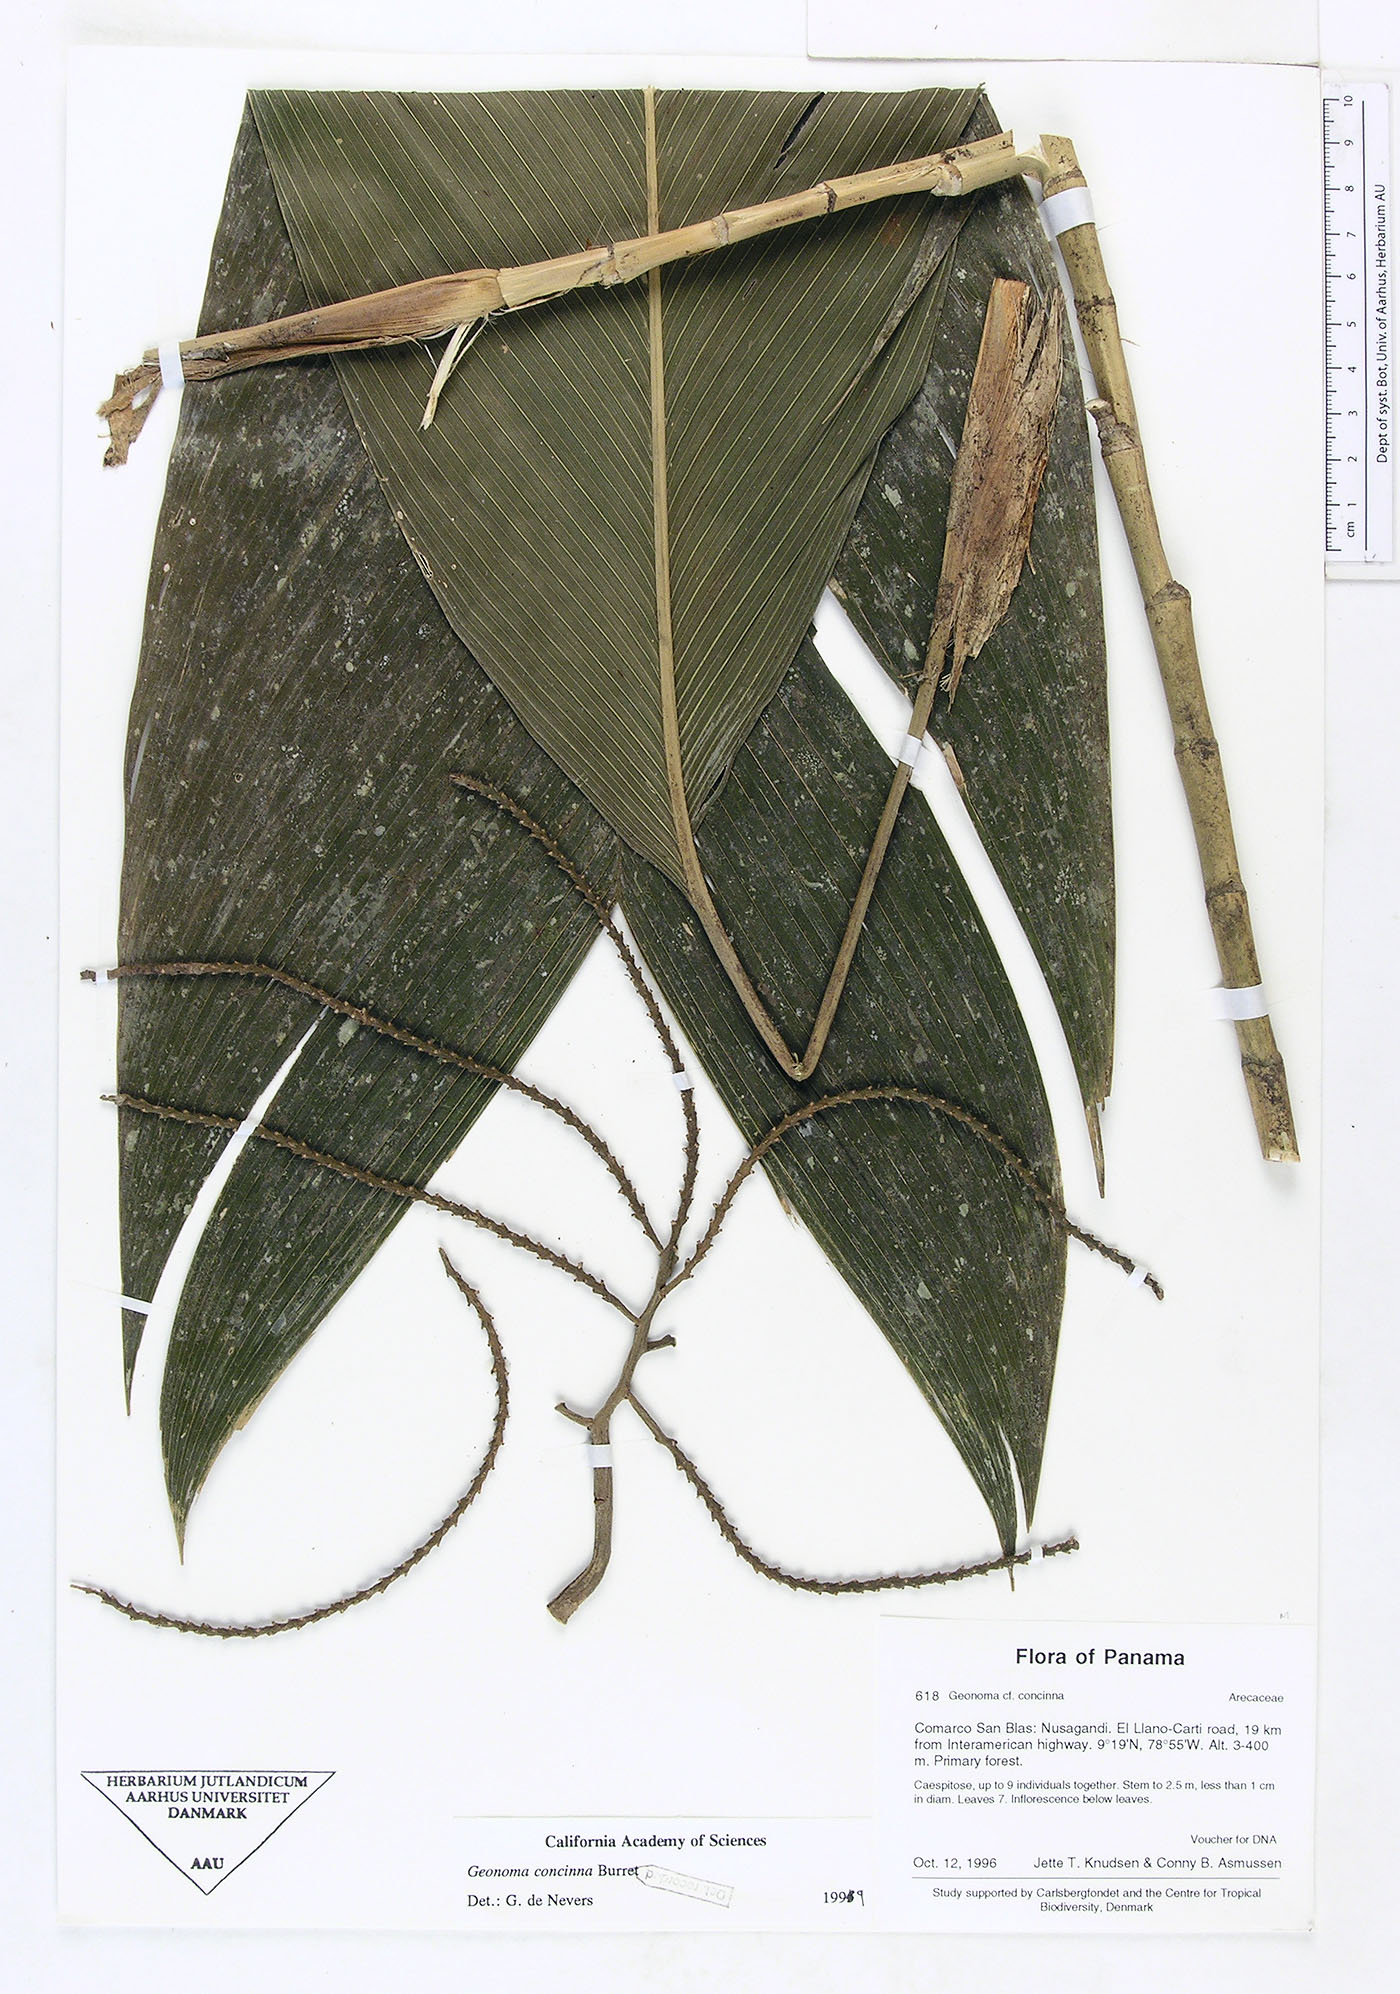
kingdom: Plantae
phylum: Tracheophyta
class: Liliopsida
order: Arecales
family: Arecaceae
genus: Geonoma
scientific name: Geonoma concinna
